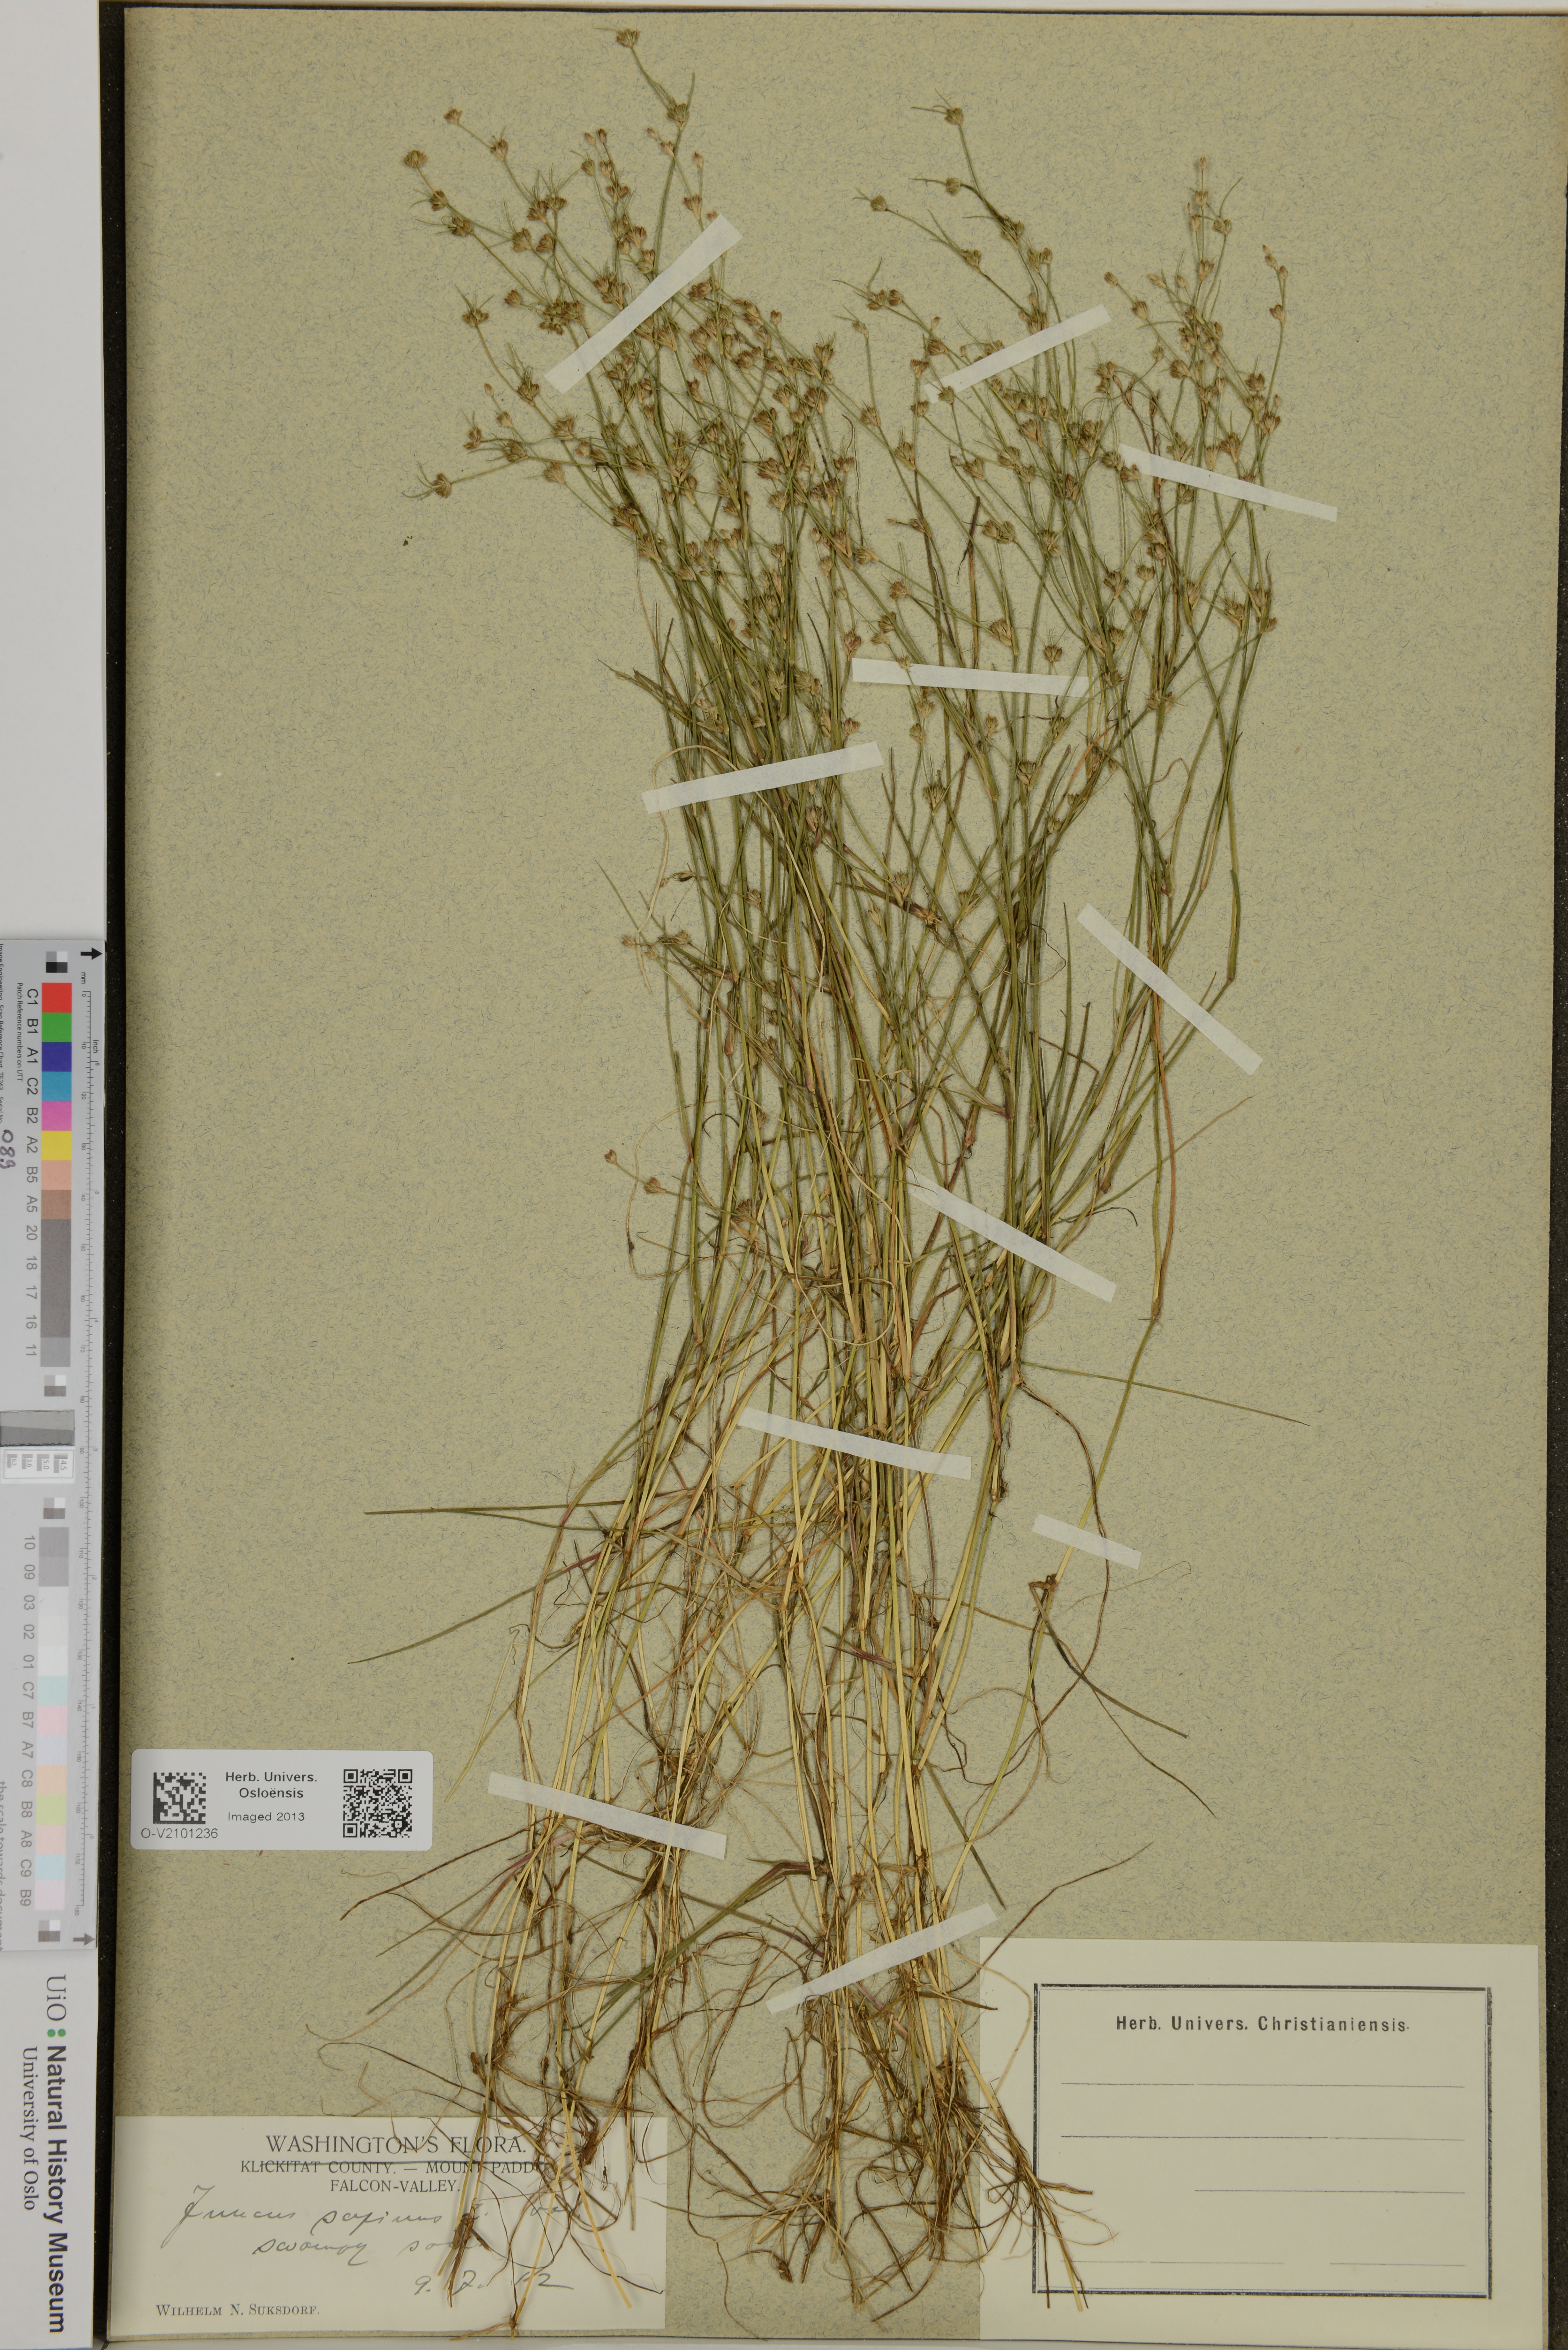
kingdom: Plantae
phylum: Tracheophyta
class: Liliopsida
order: Poales
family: Juncaceae
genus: Juncus
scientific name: Juncus bulbosus
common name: Bulbous rush
